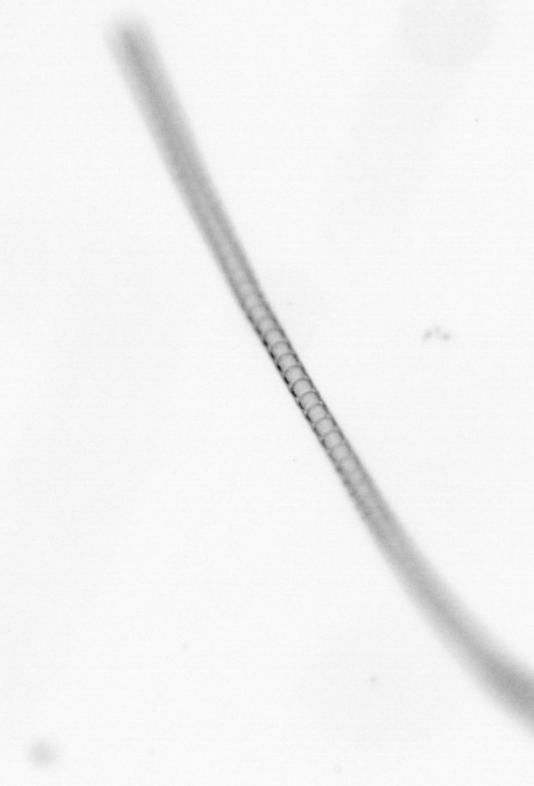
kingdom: Chromista
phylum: Ochrophyta
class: Bacillariophyceae
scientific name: Bacillariophyceae
